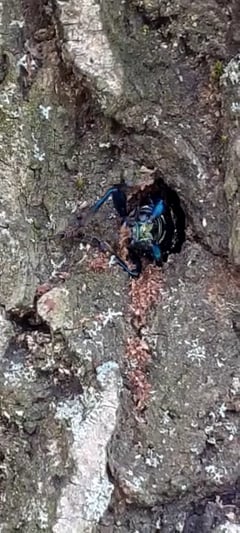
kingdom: Animalia
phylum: Arthropoda
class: Insecta
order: Coleoptera
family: Cerambycidae
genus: Aromia
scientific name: Aromia moschata
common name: Musk beetle
